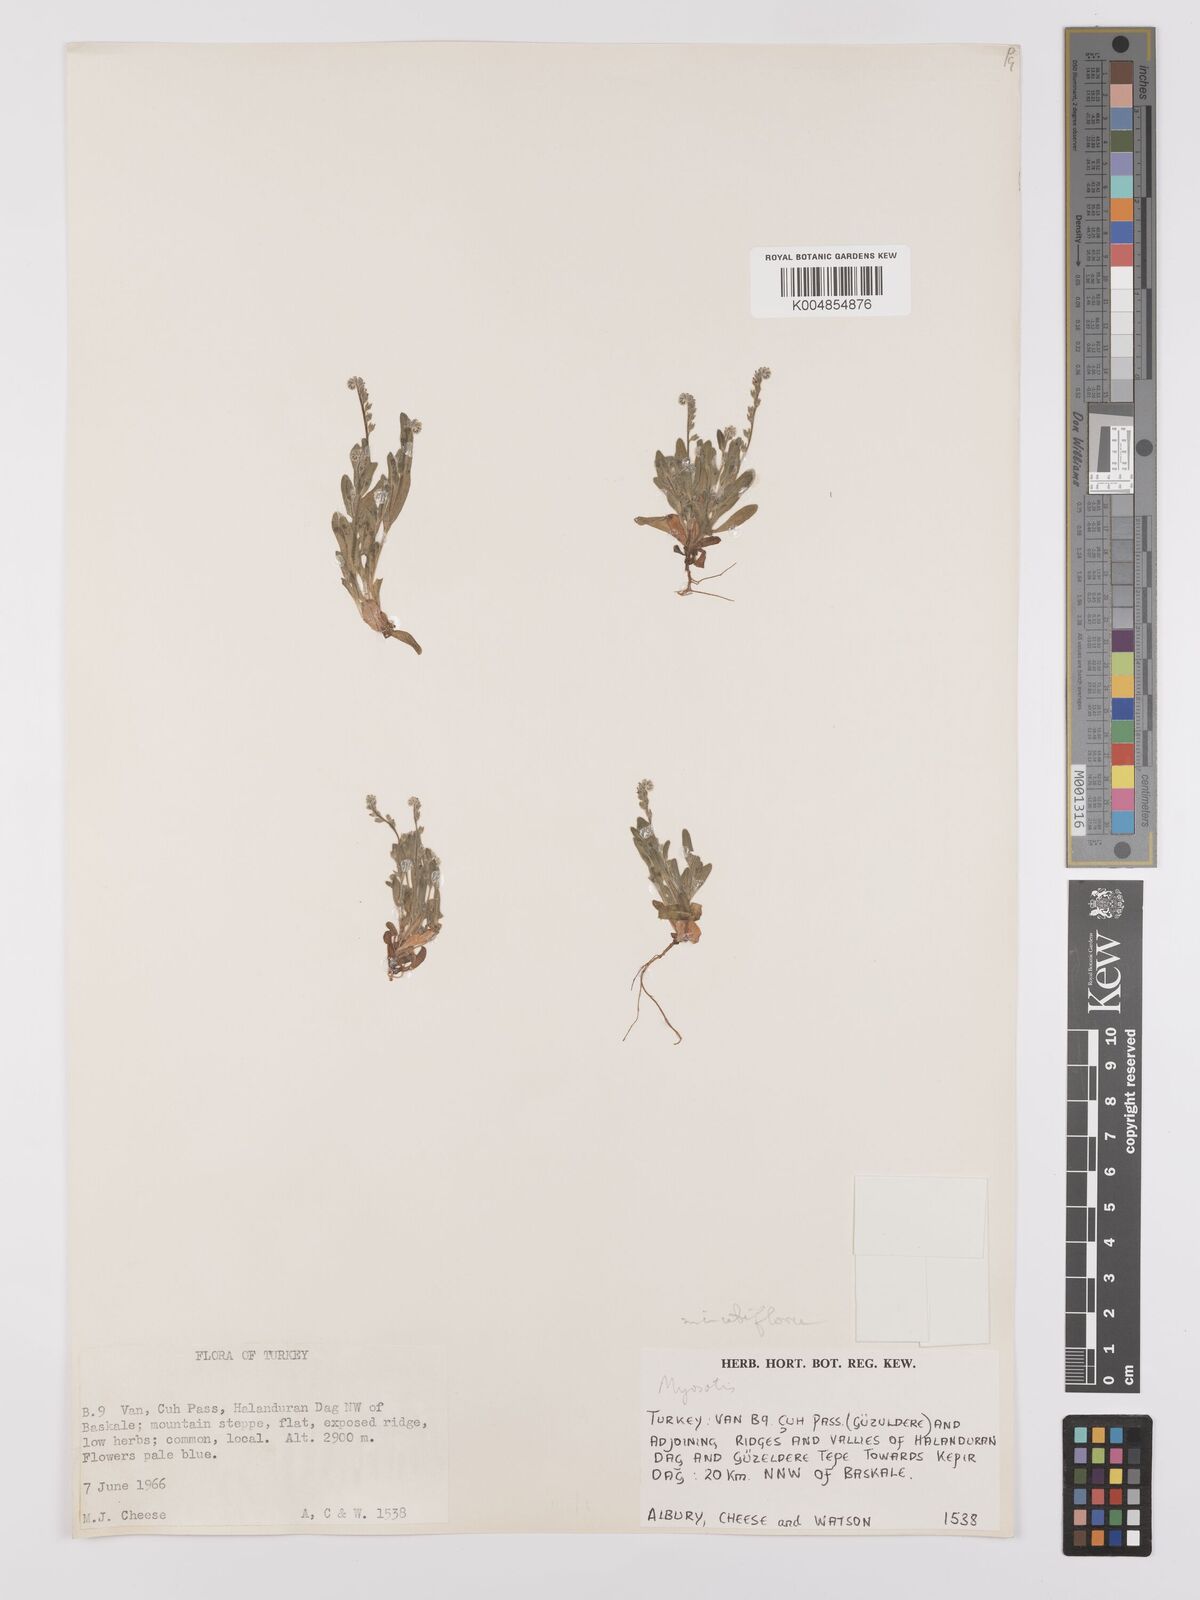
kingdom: Plantae
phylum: Tracheophyta
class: Magnoliopsida
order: Boraginales
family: Boraginaceae
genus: Myosotis
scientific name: Myosotis minutiflora
